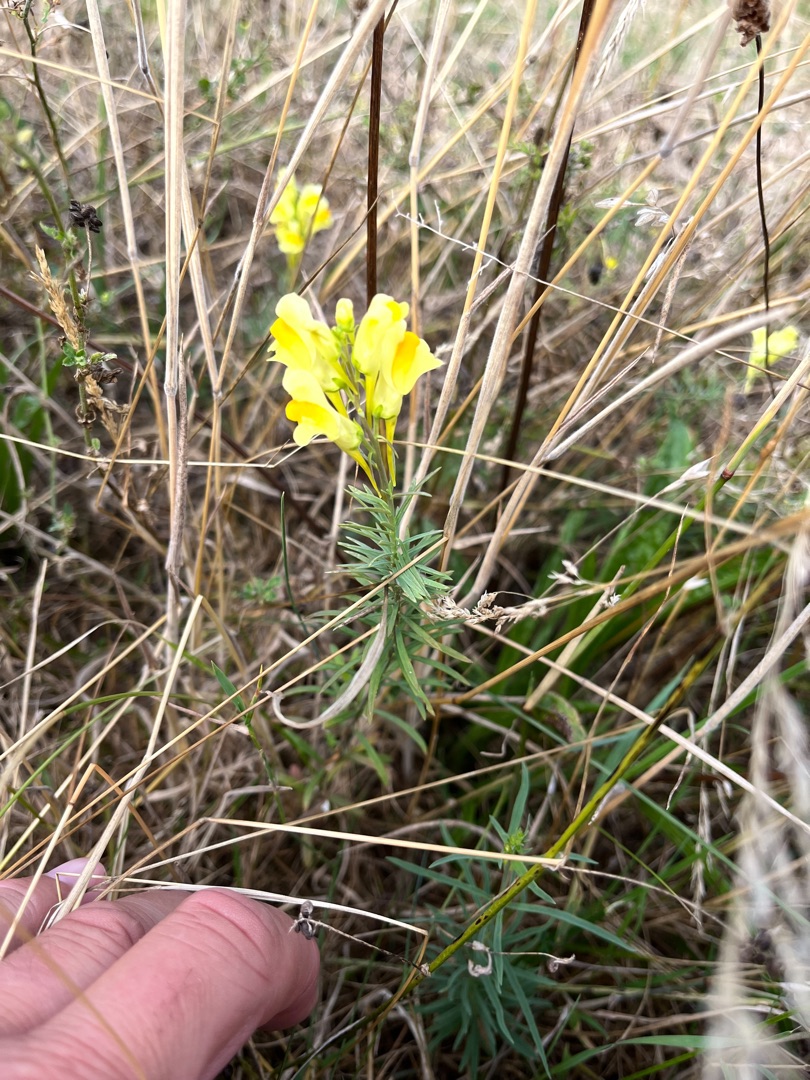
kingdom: Plantae
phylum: Tracheophyta
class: Magnoliopsida
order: Lamiales
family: Plantaginaceae
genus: Linaria
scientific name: Linaria vulgaris
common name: Almindelig torskemund
